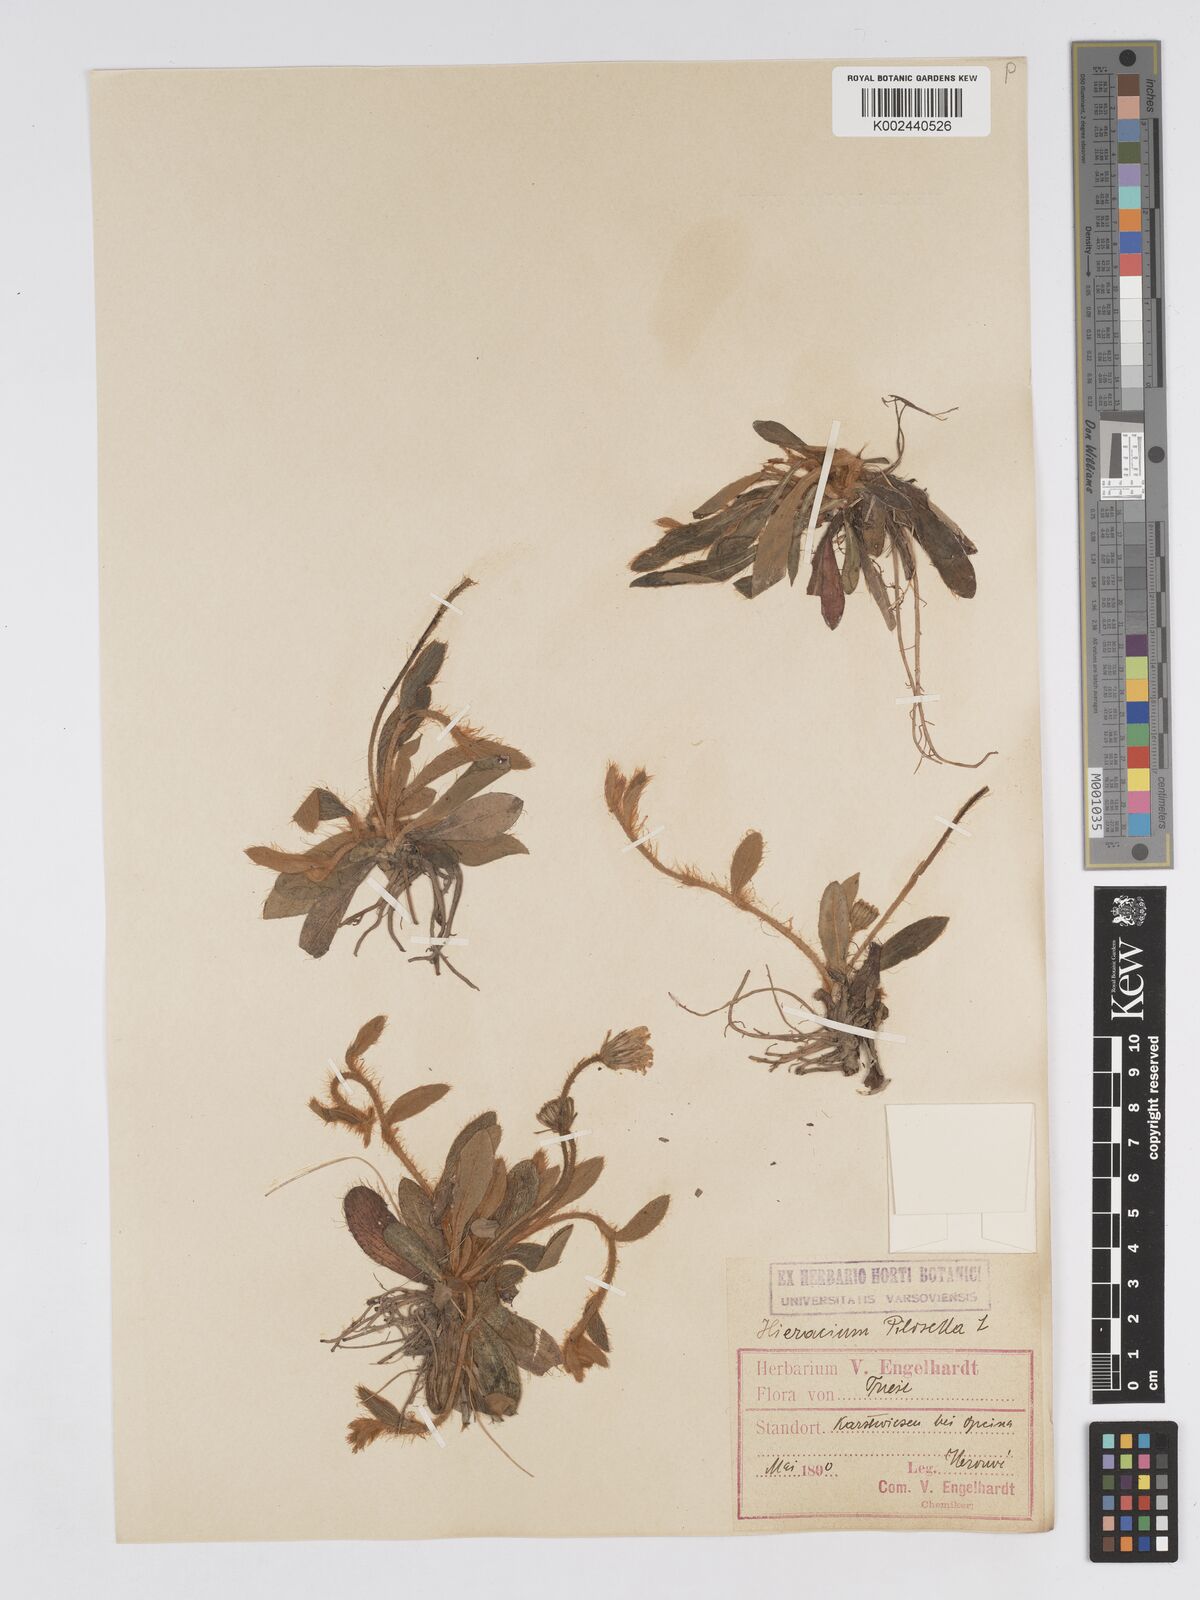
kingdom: Plantae
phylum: Tracheophyta
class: Magnoliopsida
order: Asterales
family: Asteraceae
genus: Pilosella
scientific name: Pilosella velutina
